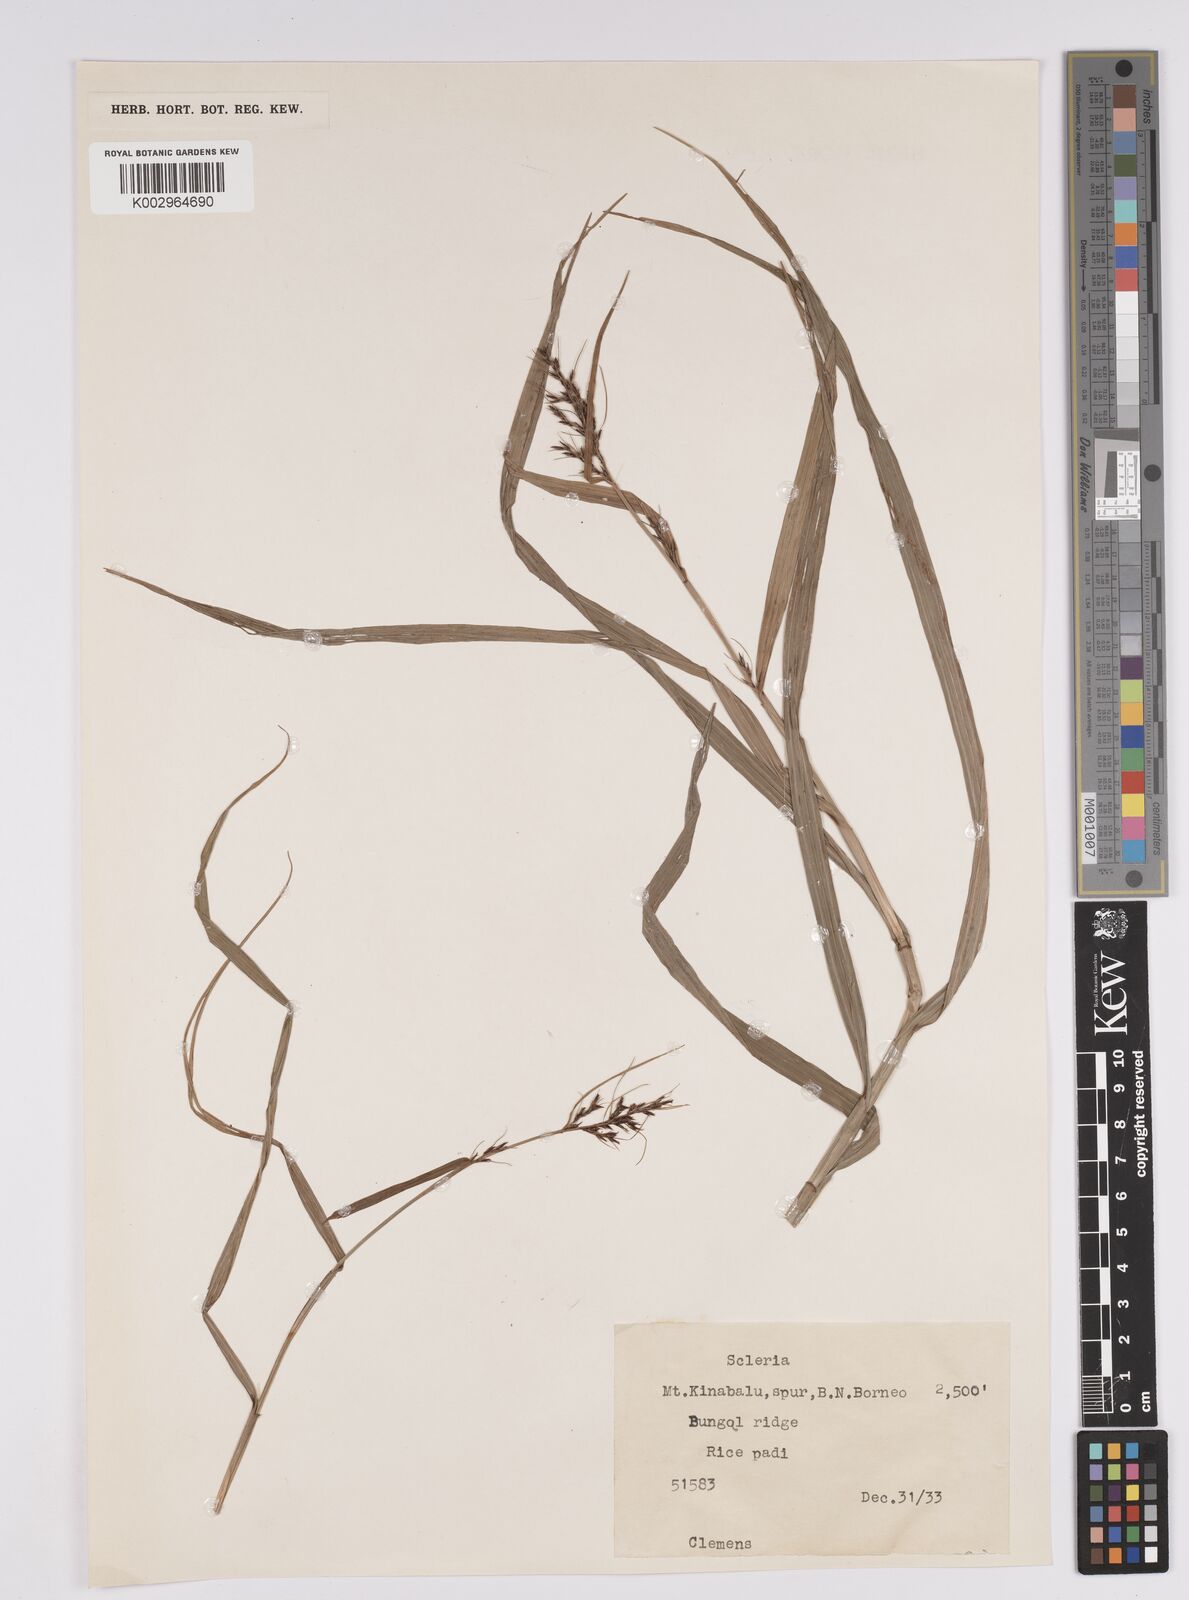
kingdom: Plantae
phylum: Tracheophyta
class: Liliopsida
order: Poales
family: Cyperaceae
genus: Scleria
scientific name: Scleria
